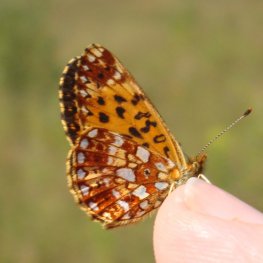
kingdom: Animalia
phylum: Arthropoda
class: Insecta
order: Lepidoptera
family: Nymphalidae
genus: Boloria
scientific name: Boloria selene
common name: Silver-bordered Fritillary
